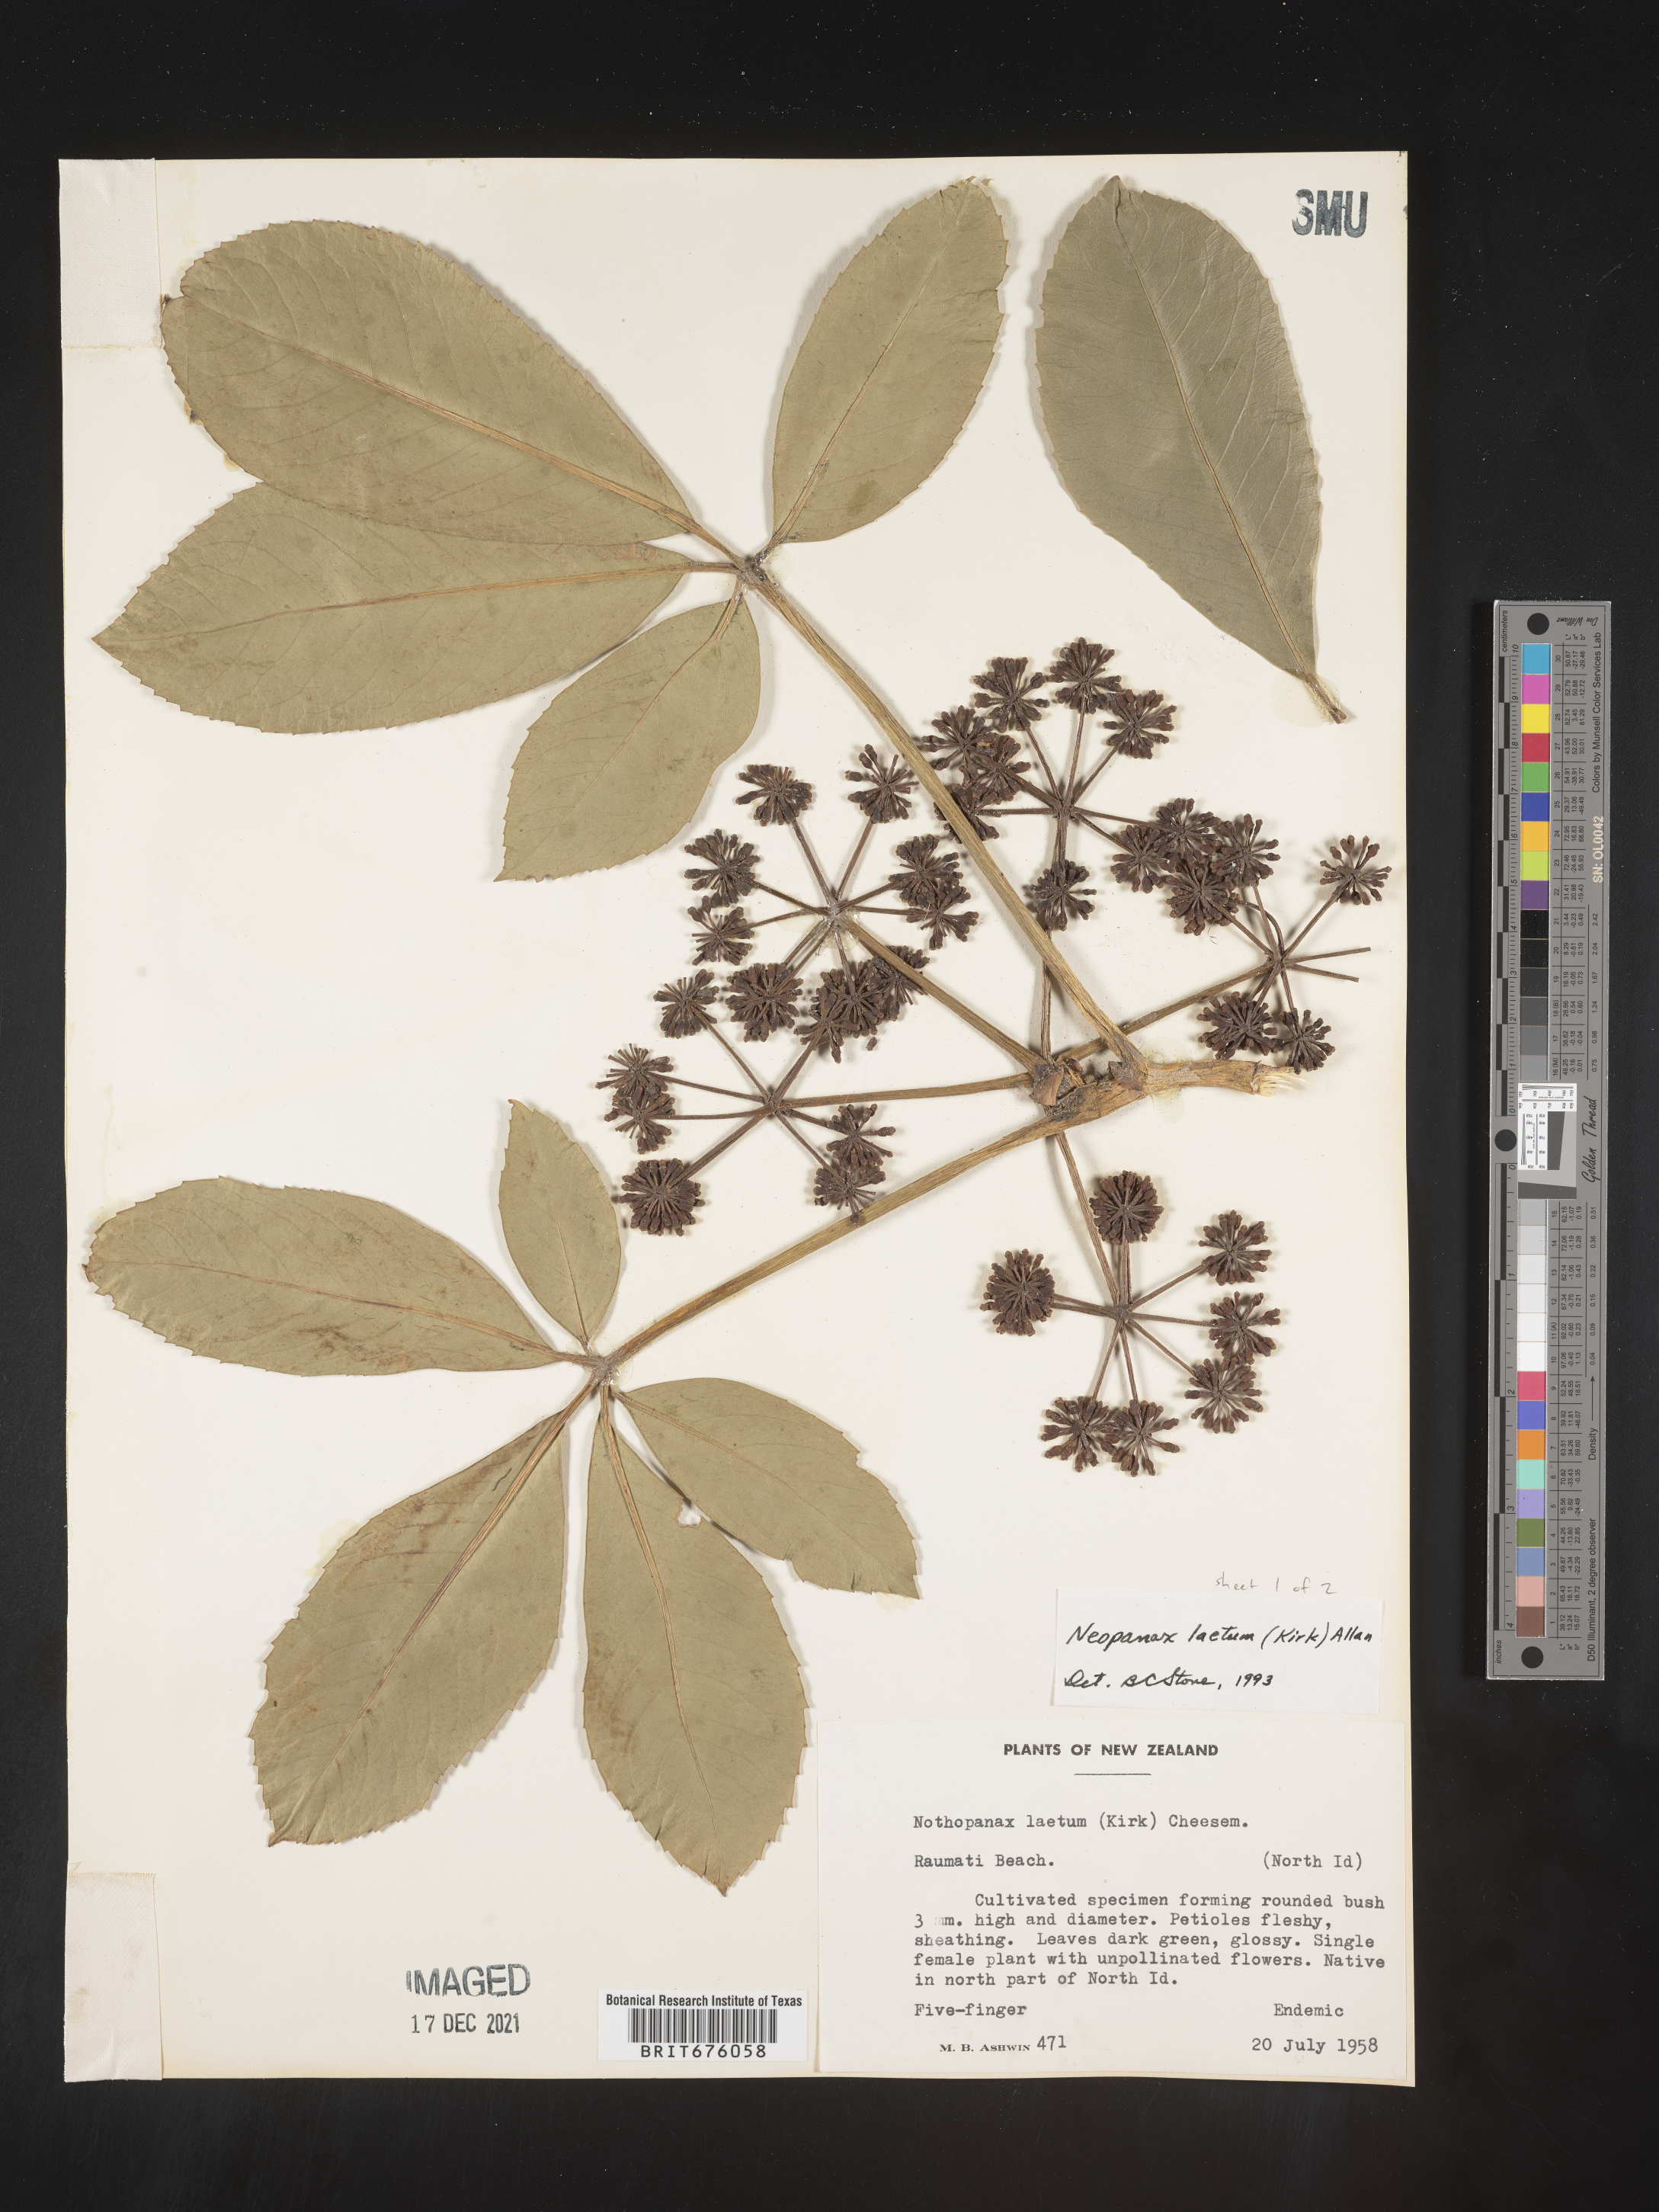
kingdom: Plantae
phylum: Tracheophyta
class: Magnoliopsida
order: Apiales
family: Araliaceae
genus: Neopanax
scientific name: Neopanax laetus
